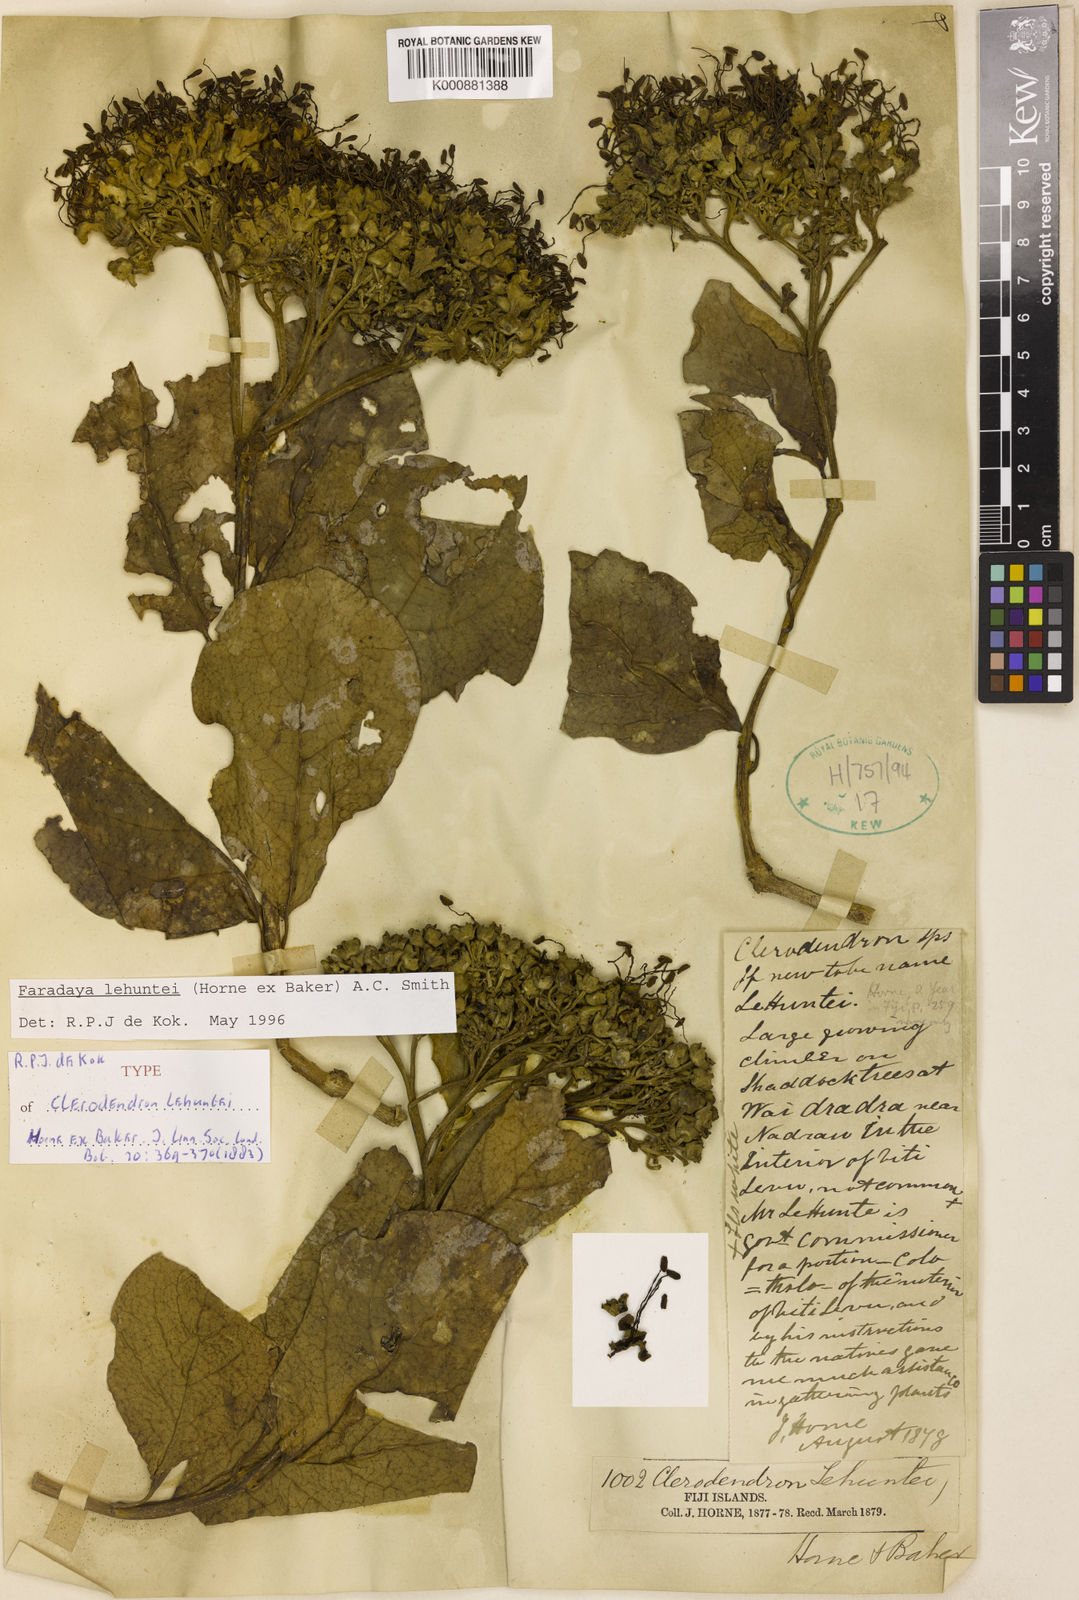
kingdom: Plantae
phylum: Tracheophyta
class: Magnoliopsida
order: Lamiales
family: Lamiaceae
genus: Oxera
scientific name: Oxera lehuntei
